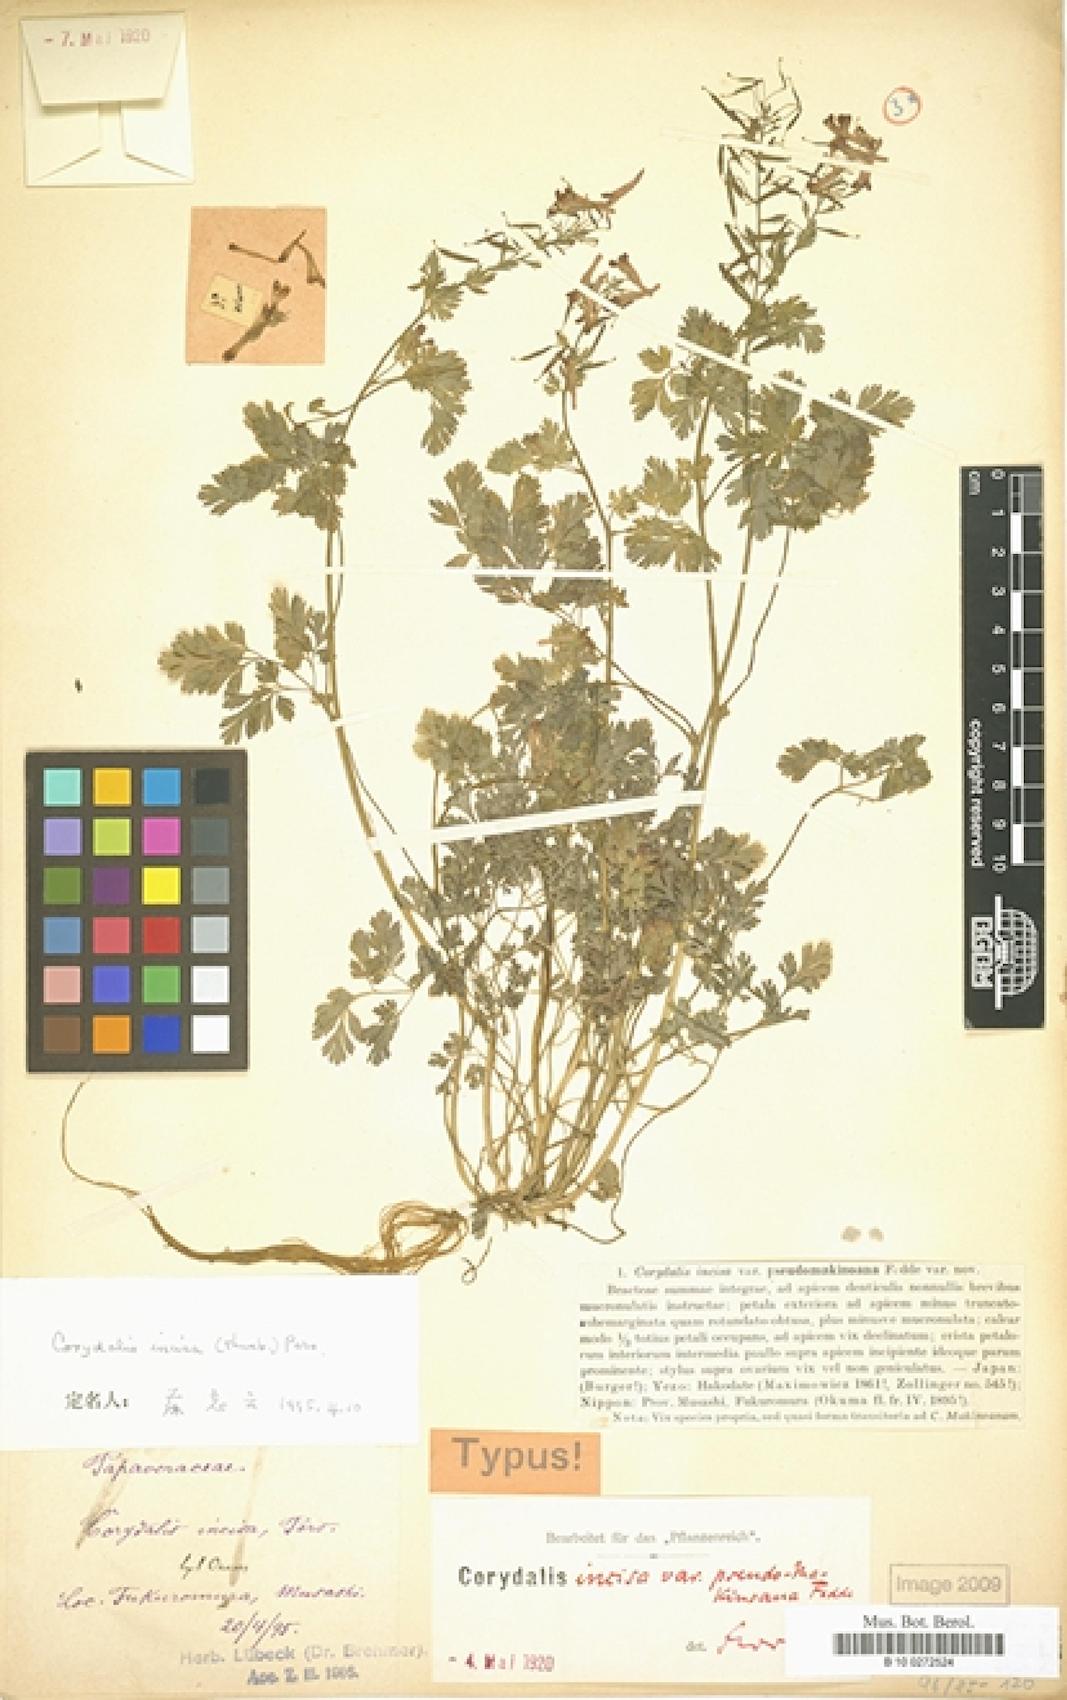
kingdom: Plantae
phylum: Tracheophyta
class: Magnoliopsida
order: Ranunculales
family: Papaveraceae
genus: Corydalis
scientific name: Corydalis incisa
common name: Incised fumewort
